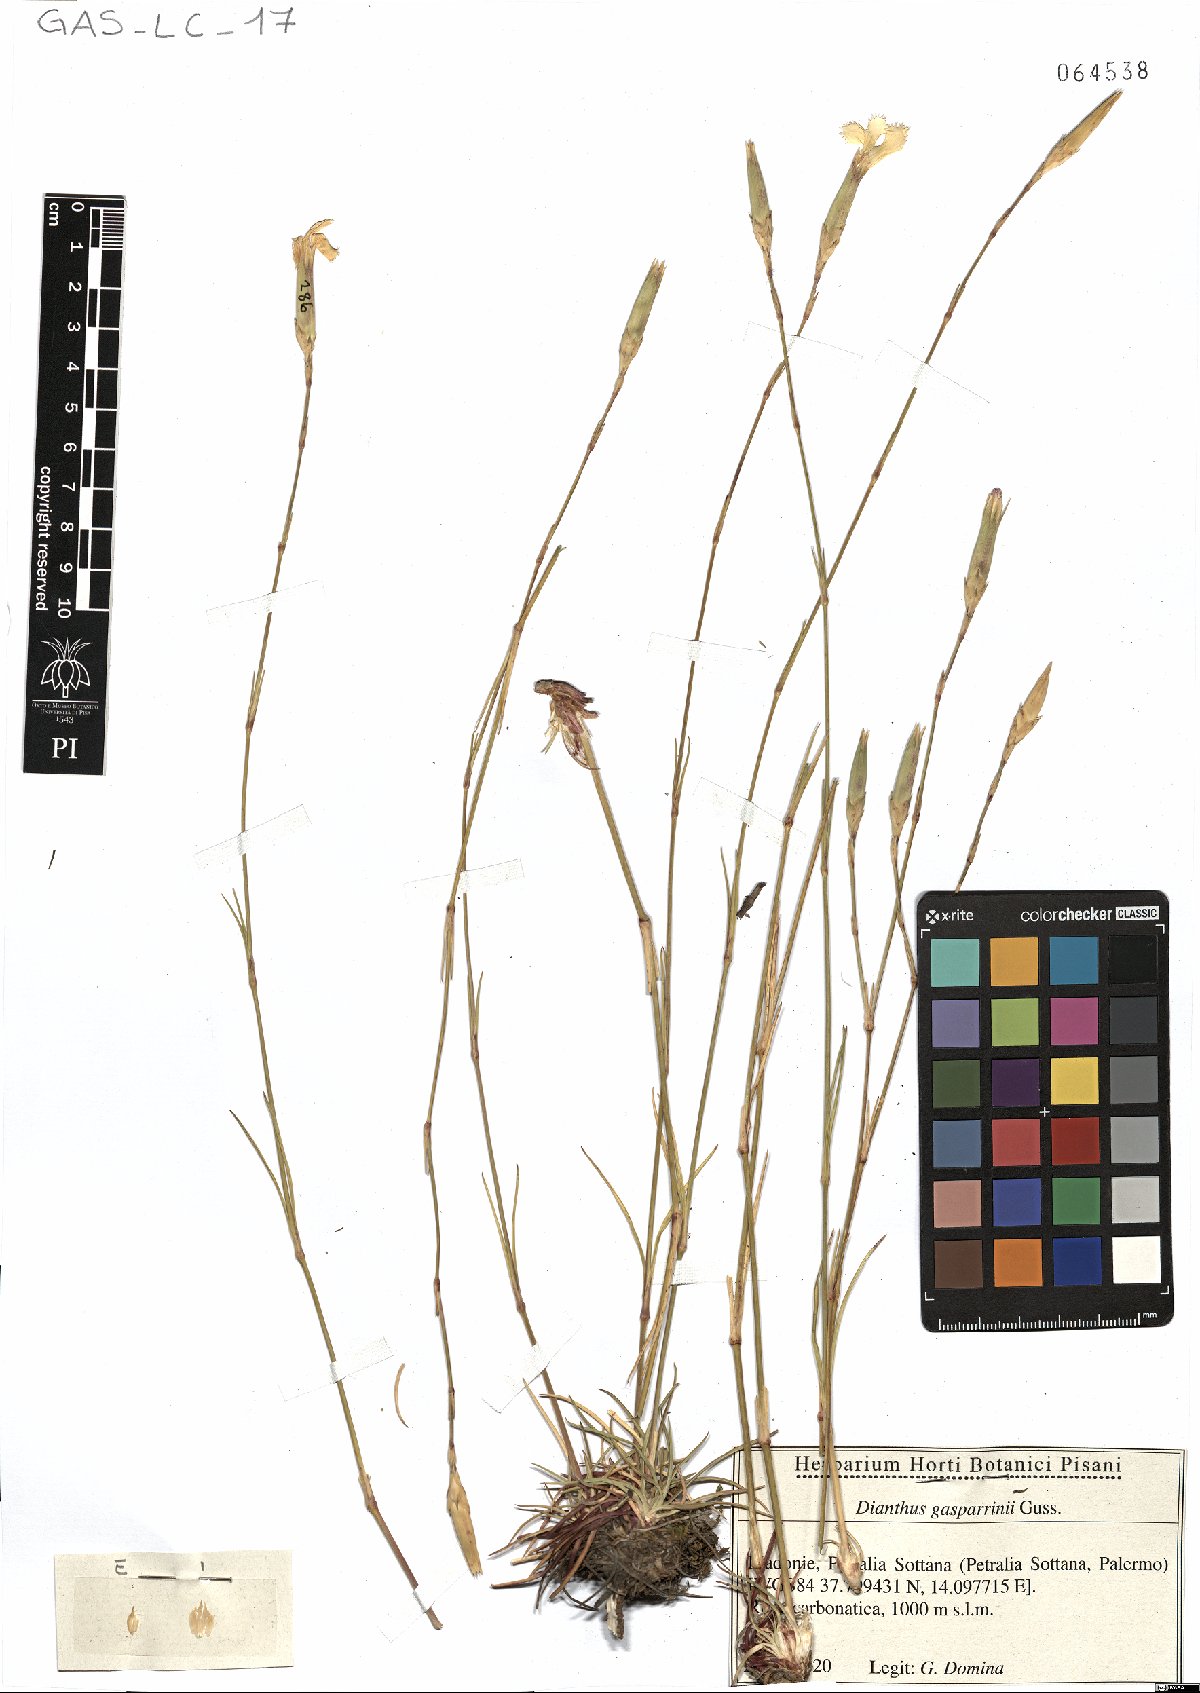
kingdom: Plantae
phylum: Tracheophyta
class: Magnoliopsida
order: Caryophyllales
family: Caryophyllaceae
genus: Dianthus
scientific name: Dianthus gasparrinii
